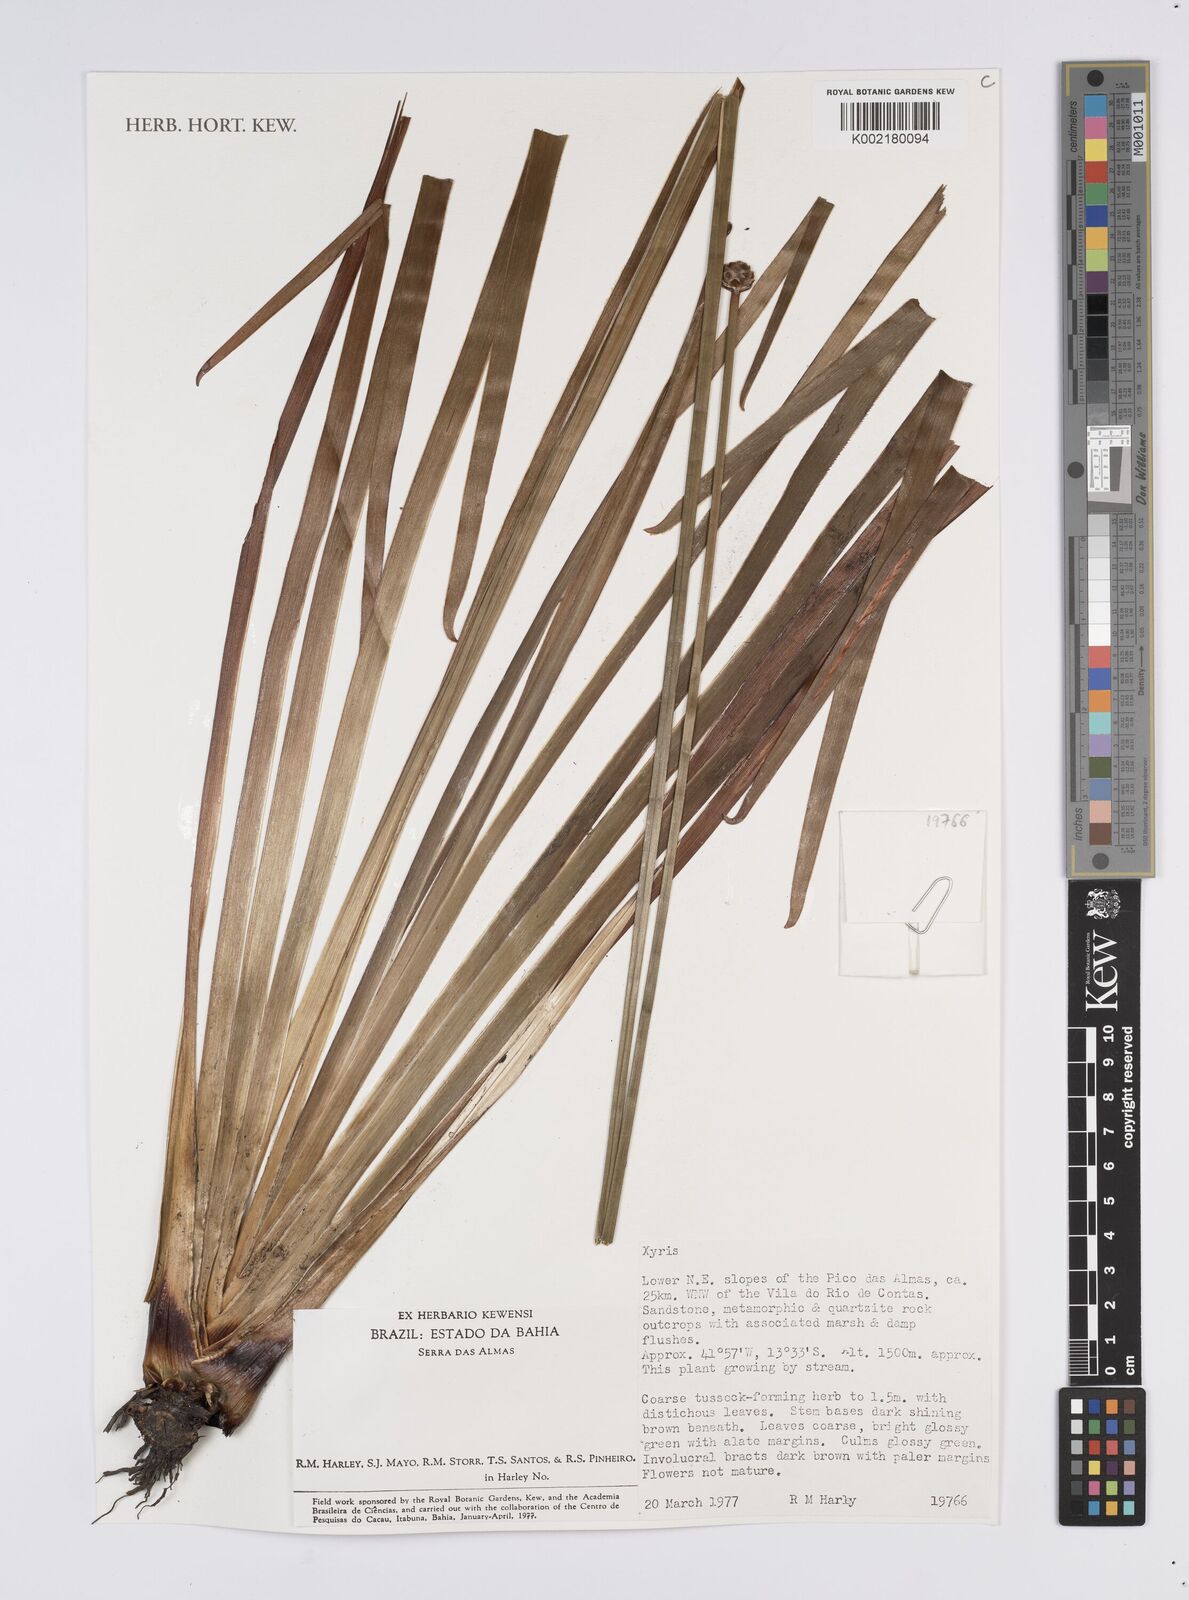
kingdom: Plantae
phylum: Tracheophyta
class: Liliopsida
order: Poales
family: Xyridaceae
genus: Xyris
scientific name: Xyris
